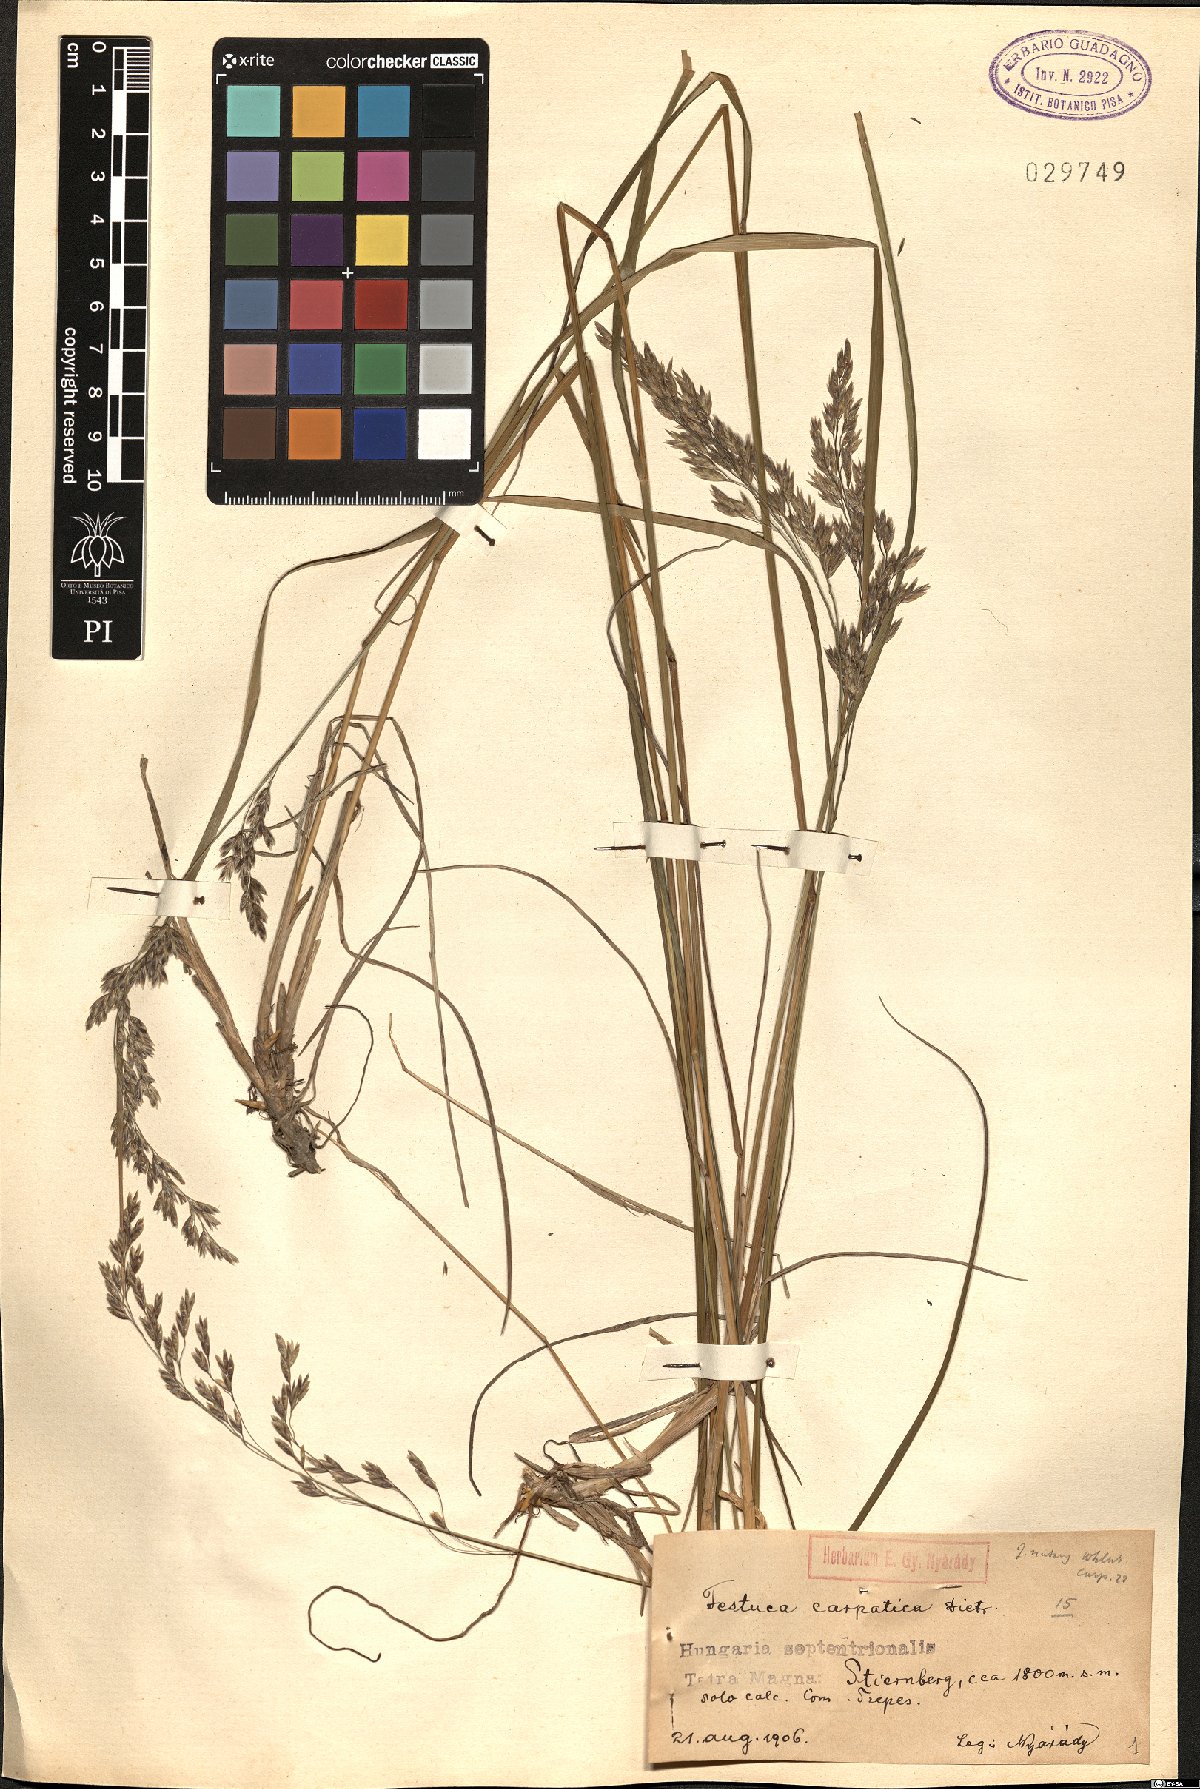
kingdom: Plantae
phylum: Tracheophyta
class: Liliopsida
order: Poales
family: Poaceae
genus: Festuca
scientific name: Festuca carpatica
